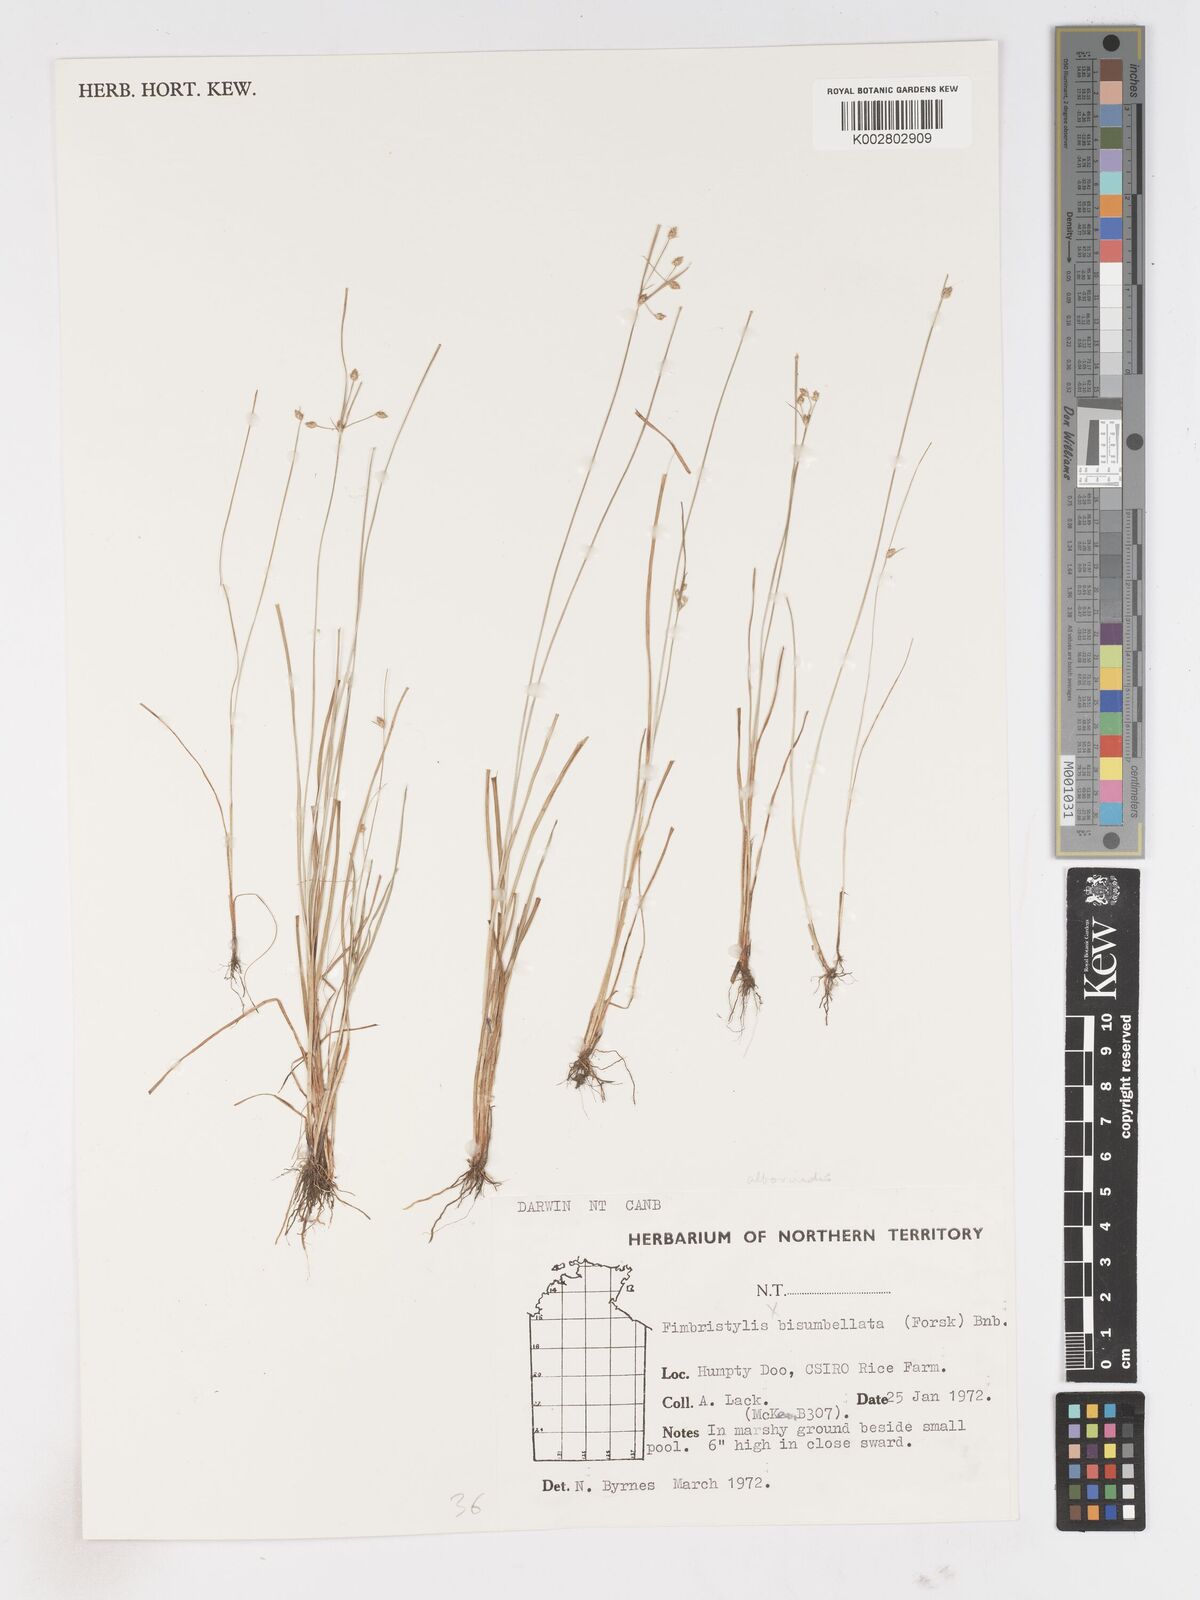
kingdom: Plantae
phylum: Tracheophyta
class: Liliopsida
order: Poales
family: Cyperaceae
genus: Fimbristylis
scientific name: Fimbristylis
